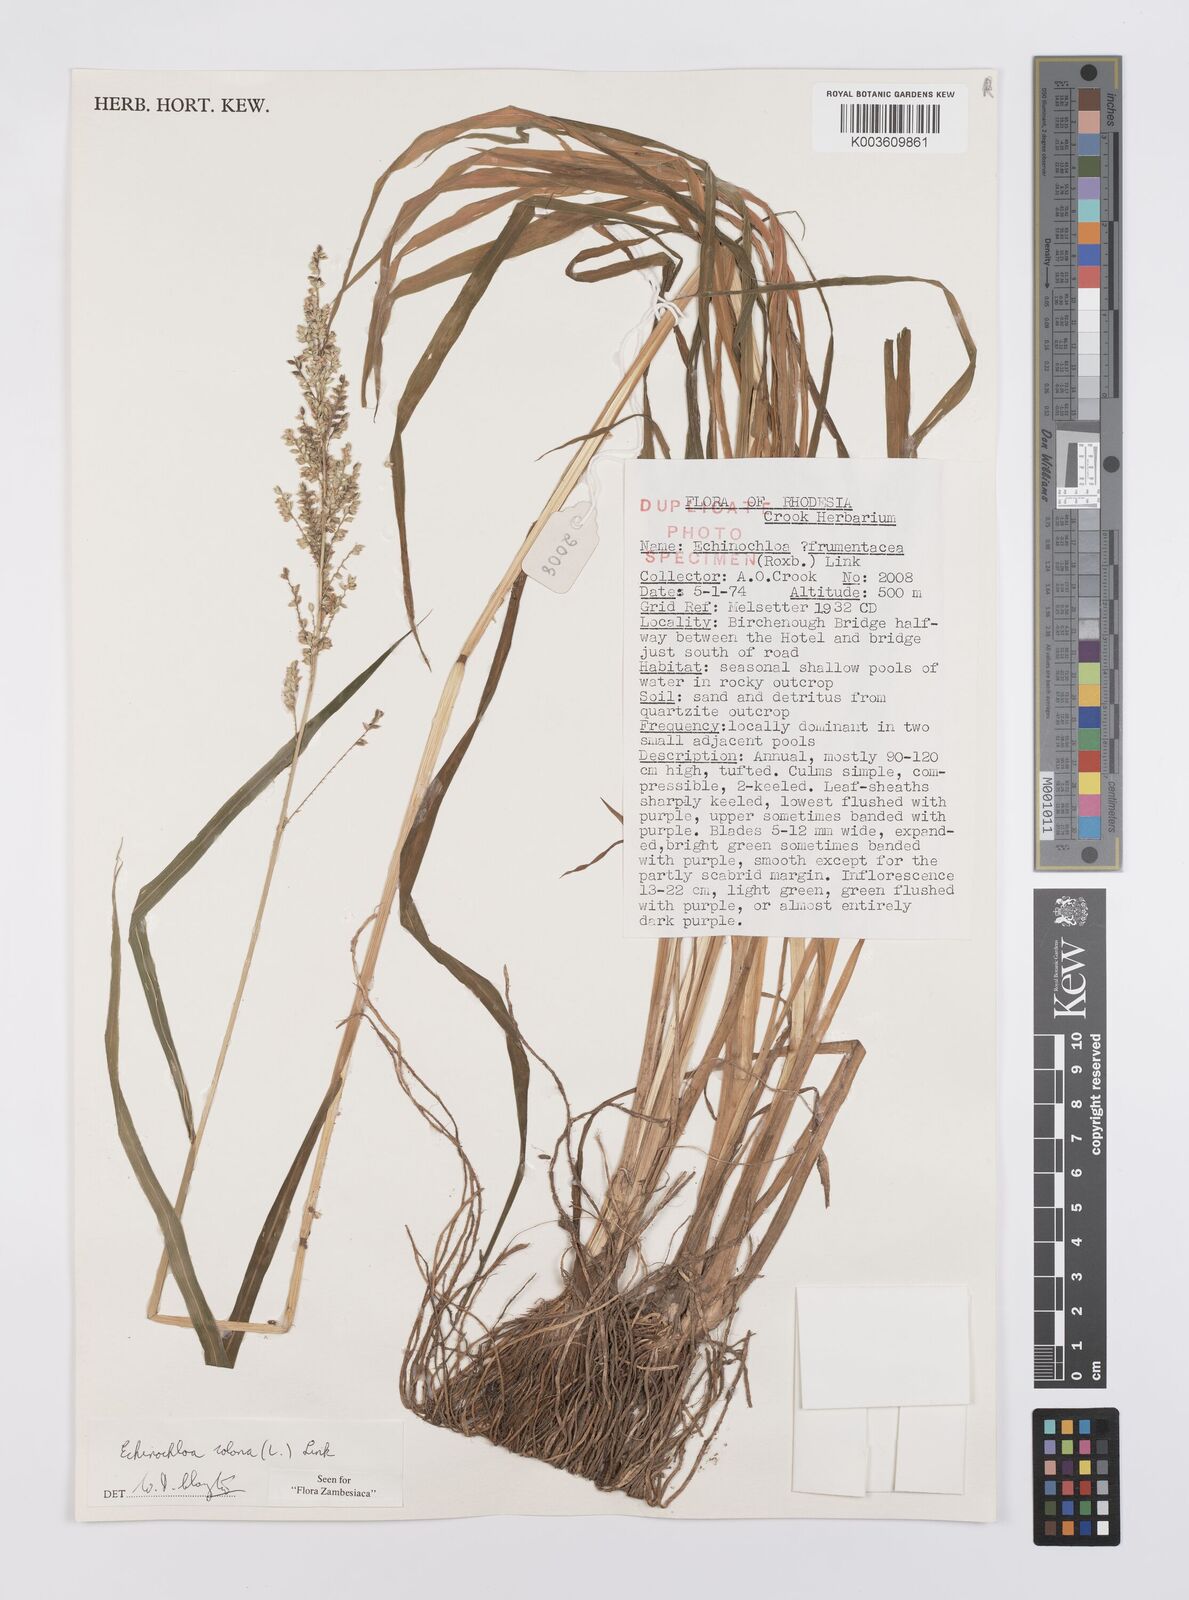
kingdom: Plantae
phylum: Tracheophyta
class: Liliopsida
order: Poales
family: Poaceae
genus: Echinochloa
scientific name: Echinochloa colonum
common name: Jungle rice
